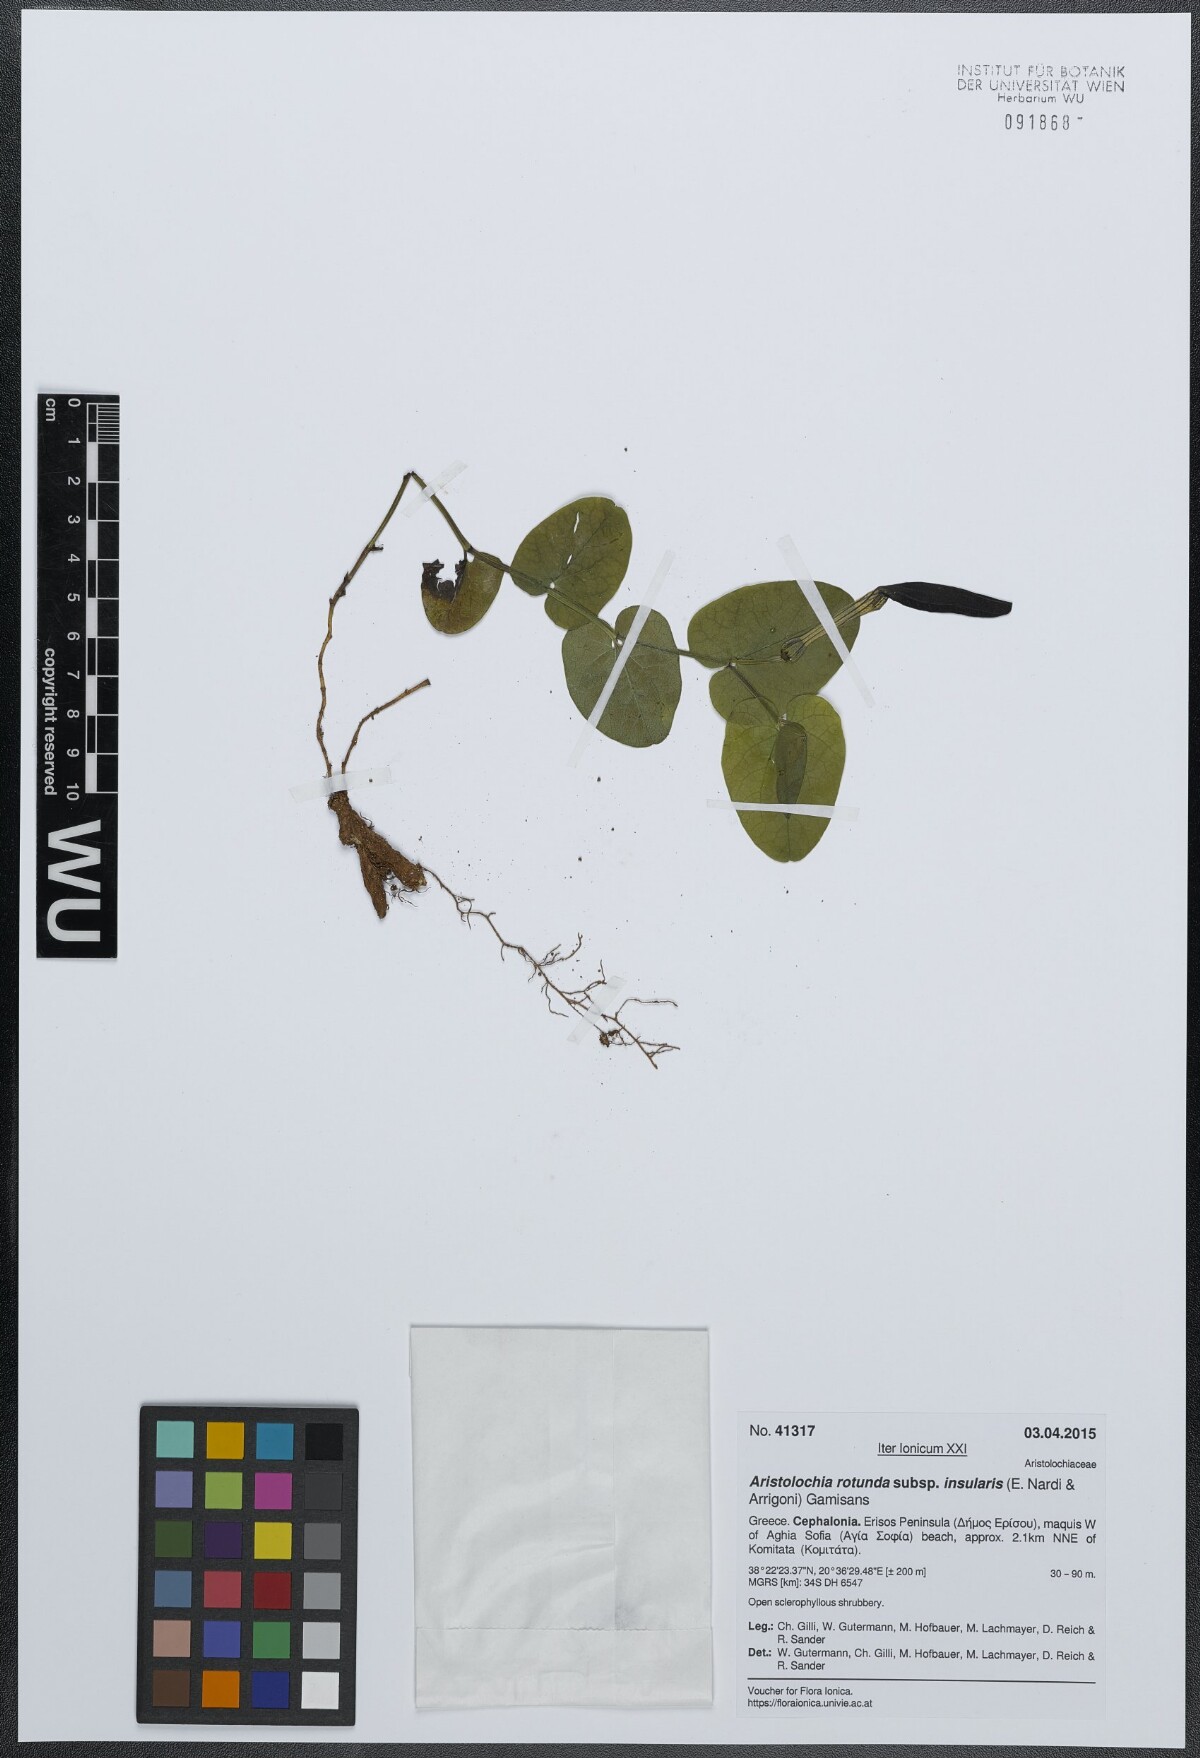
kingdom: Plantae
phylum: Tracheophyta
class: Magnoliopsida
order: Piperales
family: Aristolochiaceae
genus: Aristolochia
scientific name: Aristolochia rotunda
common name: Smearwort
